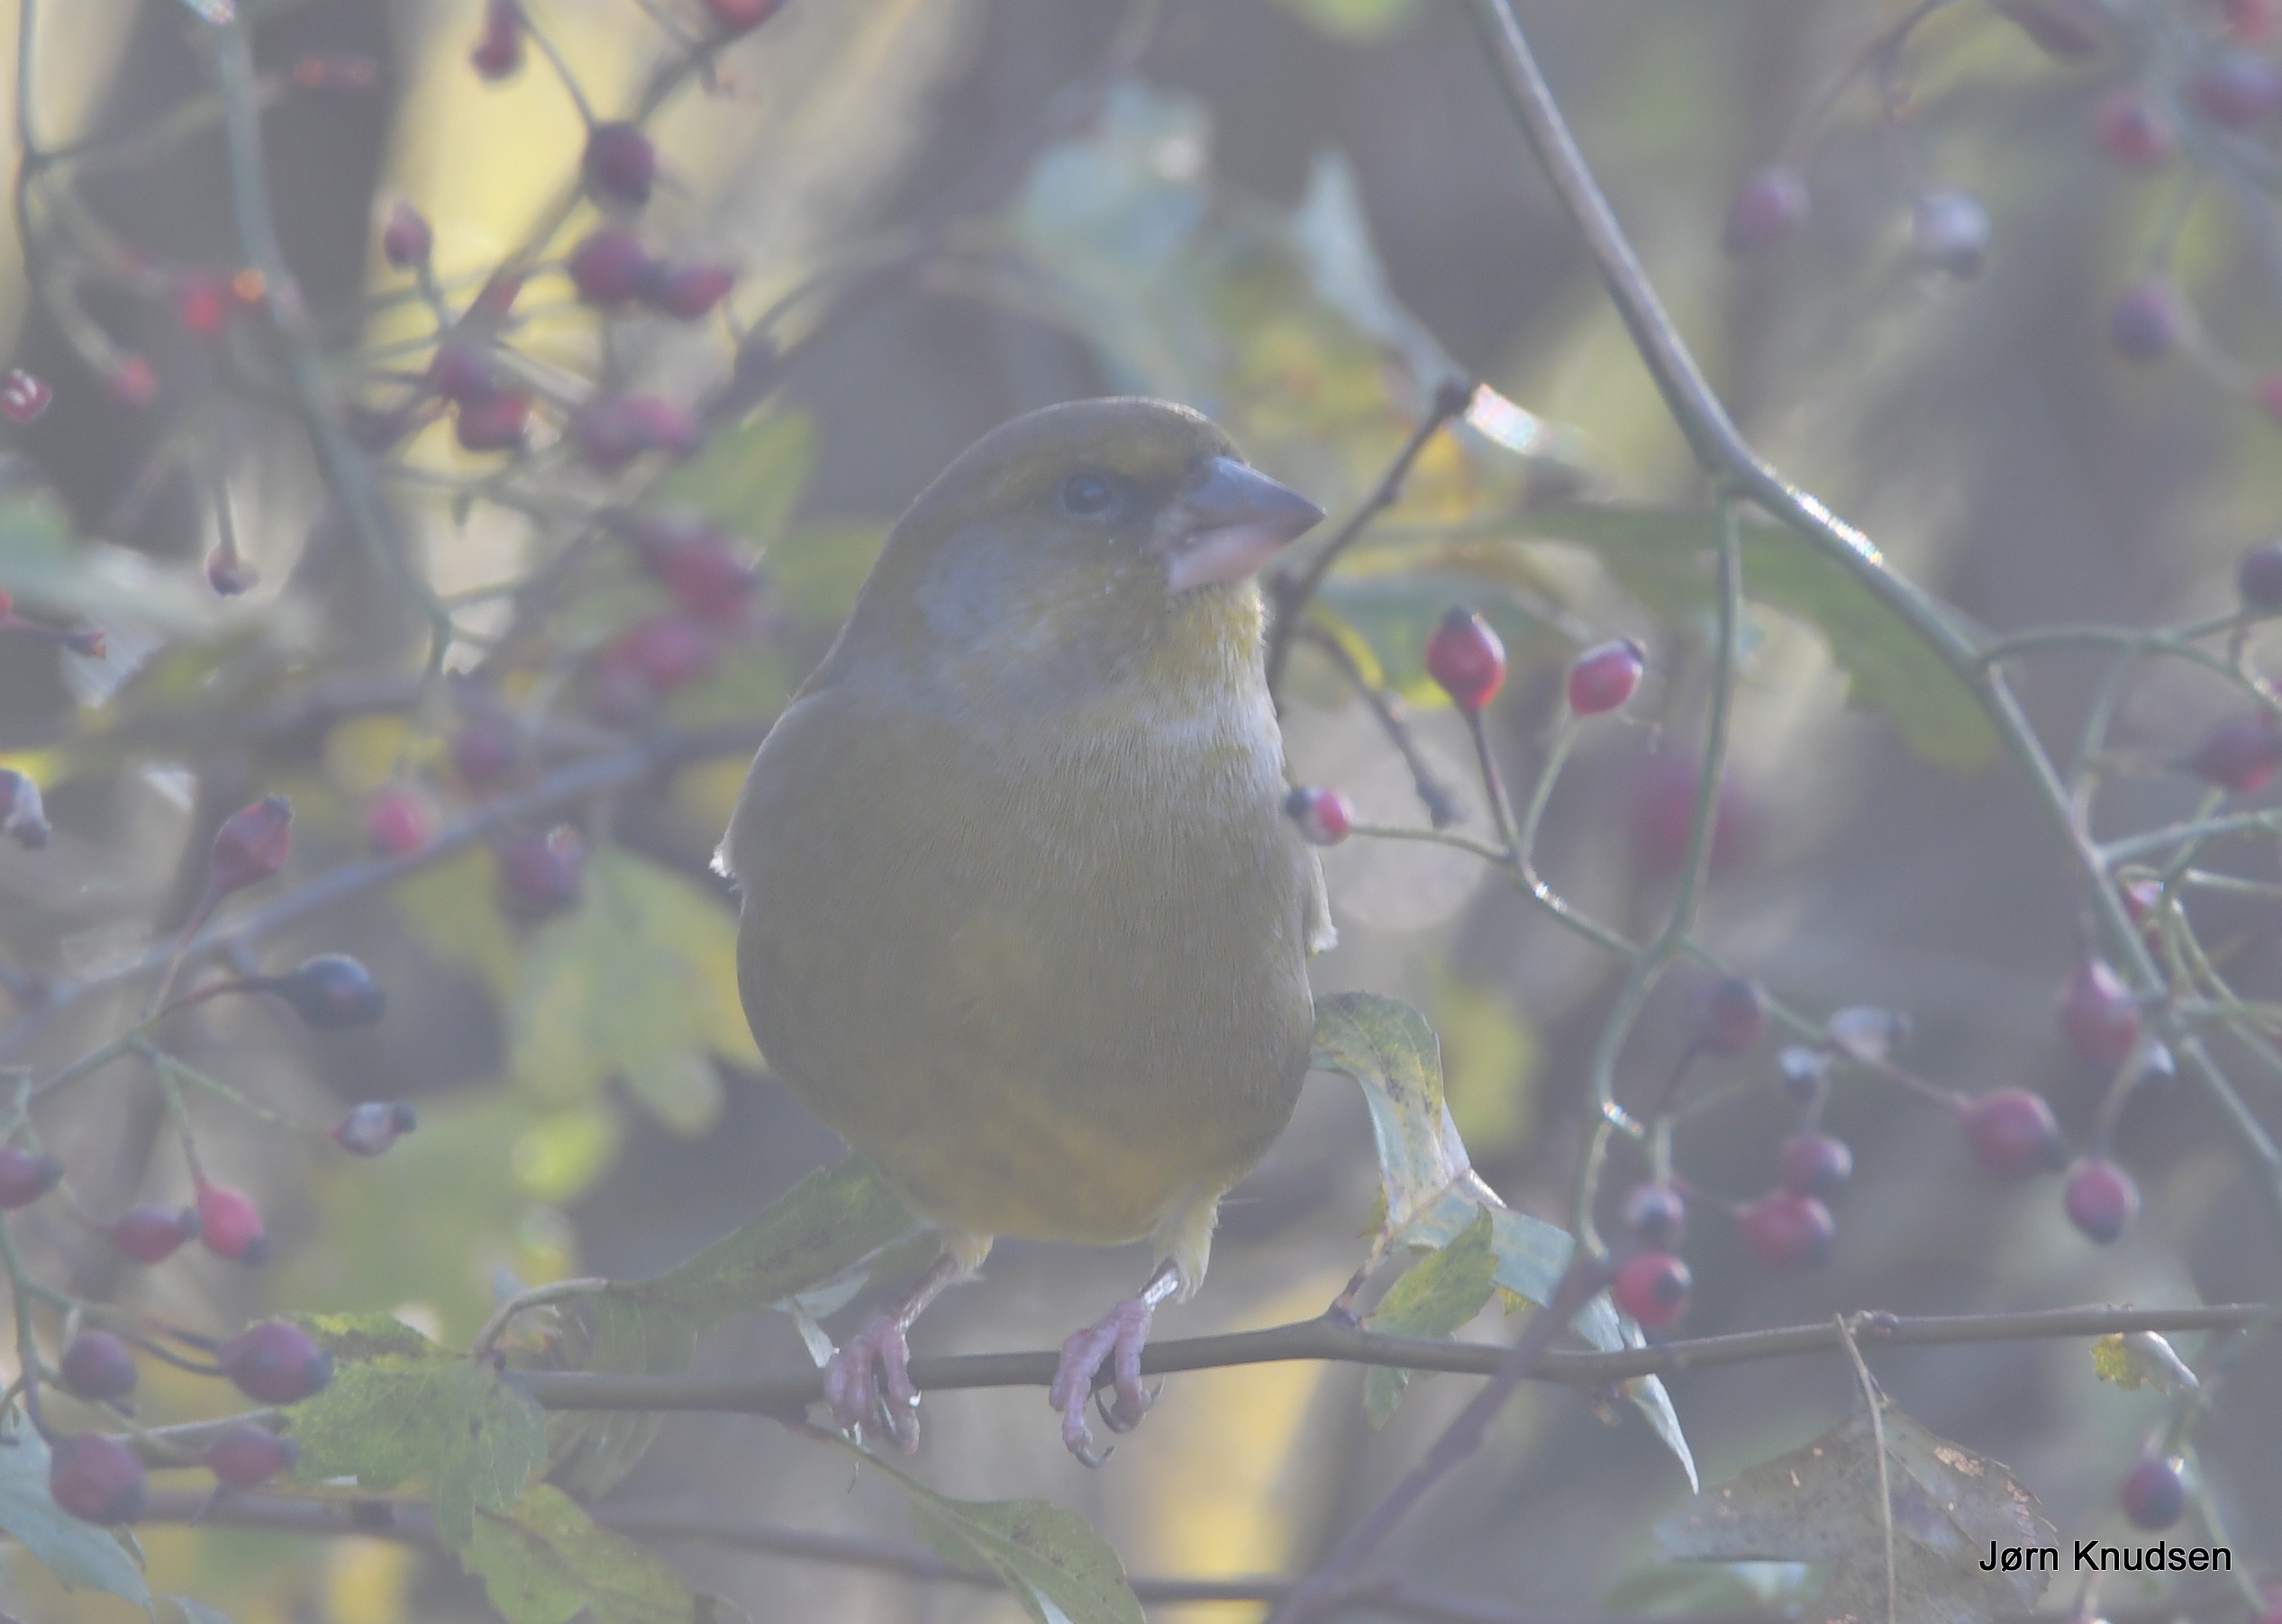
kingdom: Plantae
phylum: Tracheophyta
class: Liliopsida
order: Poales
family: Poaceae
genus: Chloris
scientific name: Chloris chloris
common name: Grønirisk
